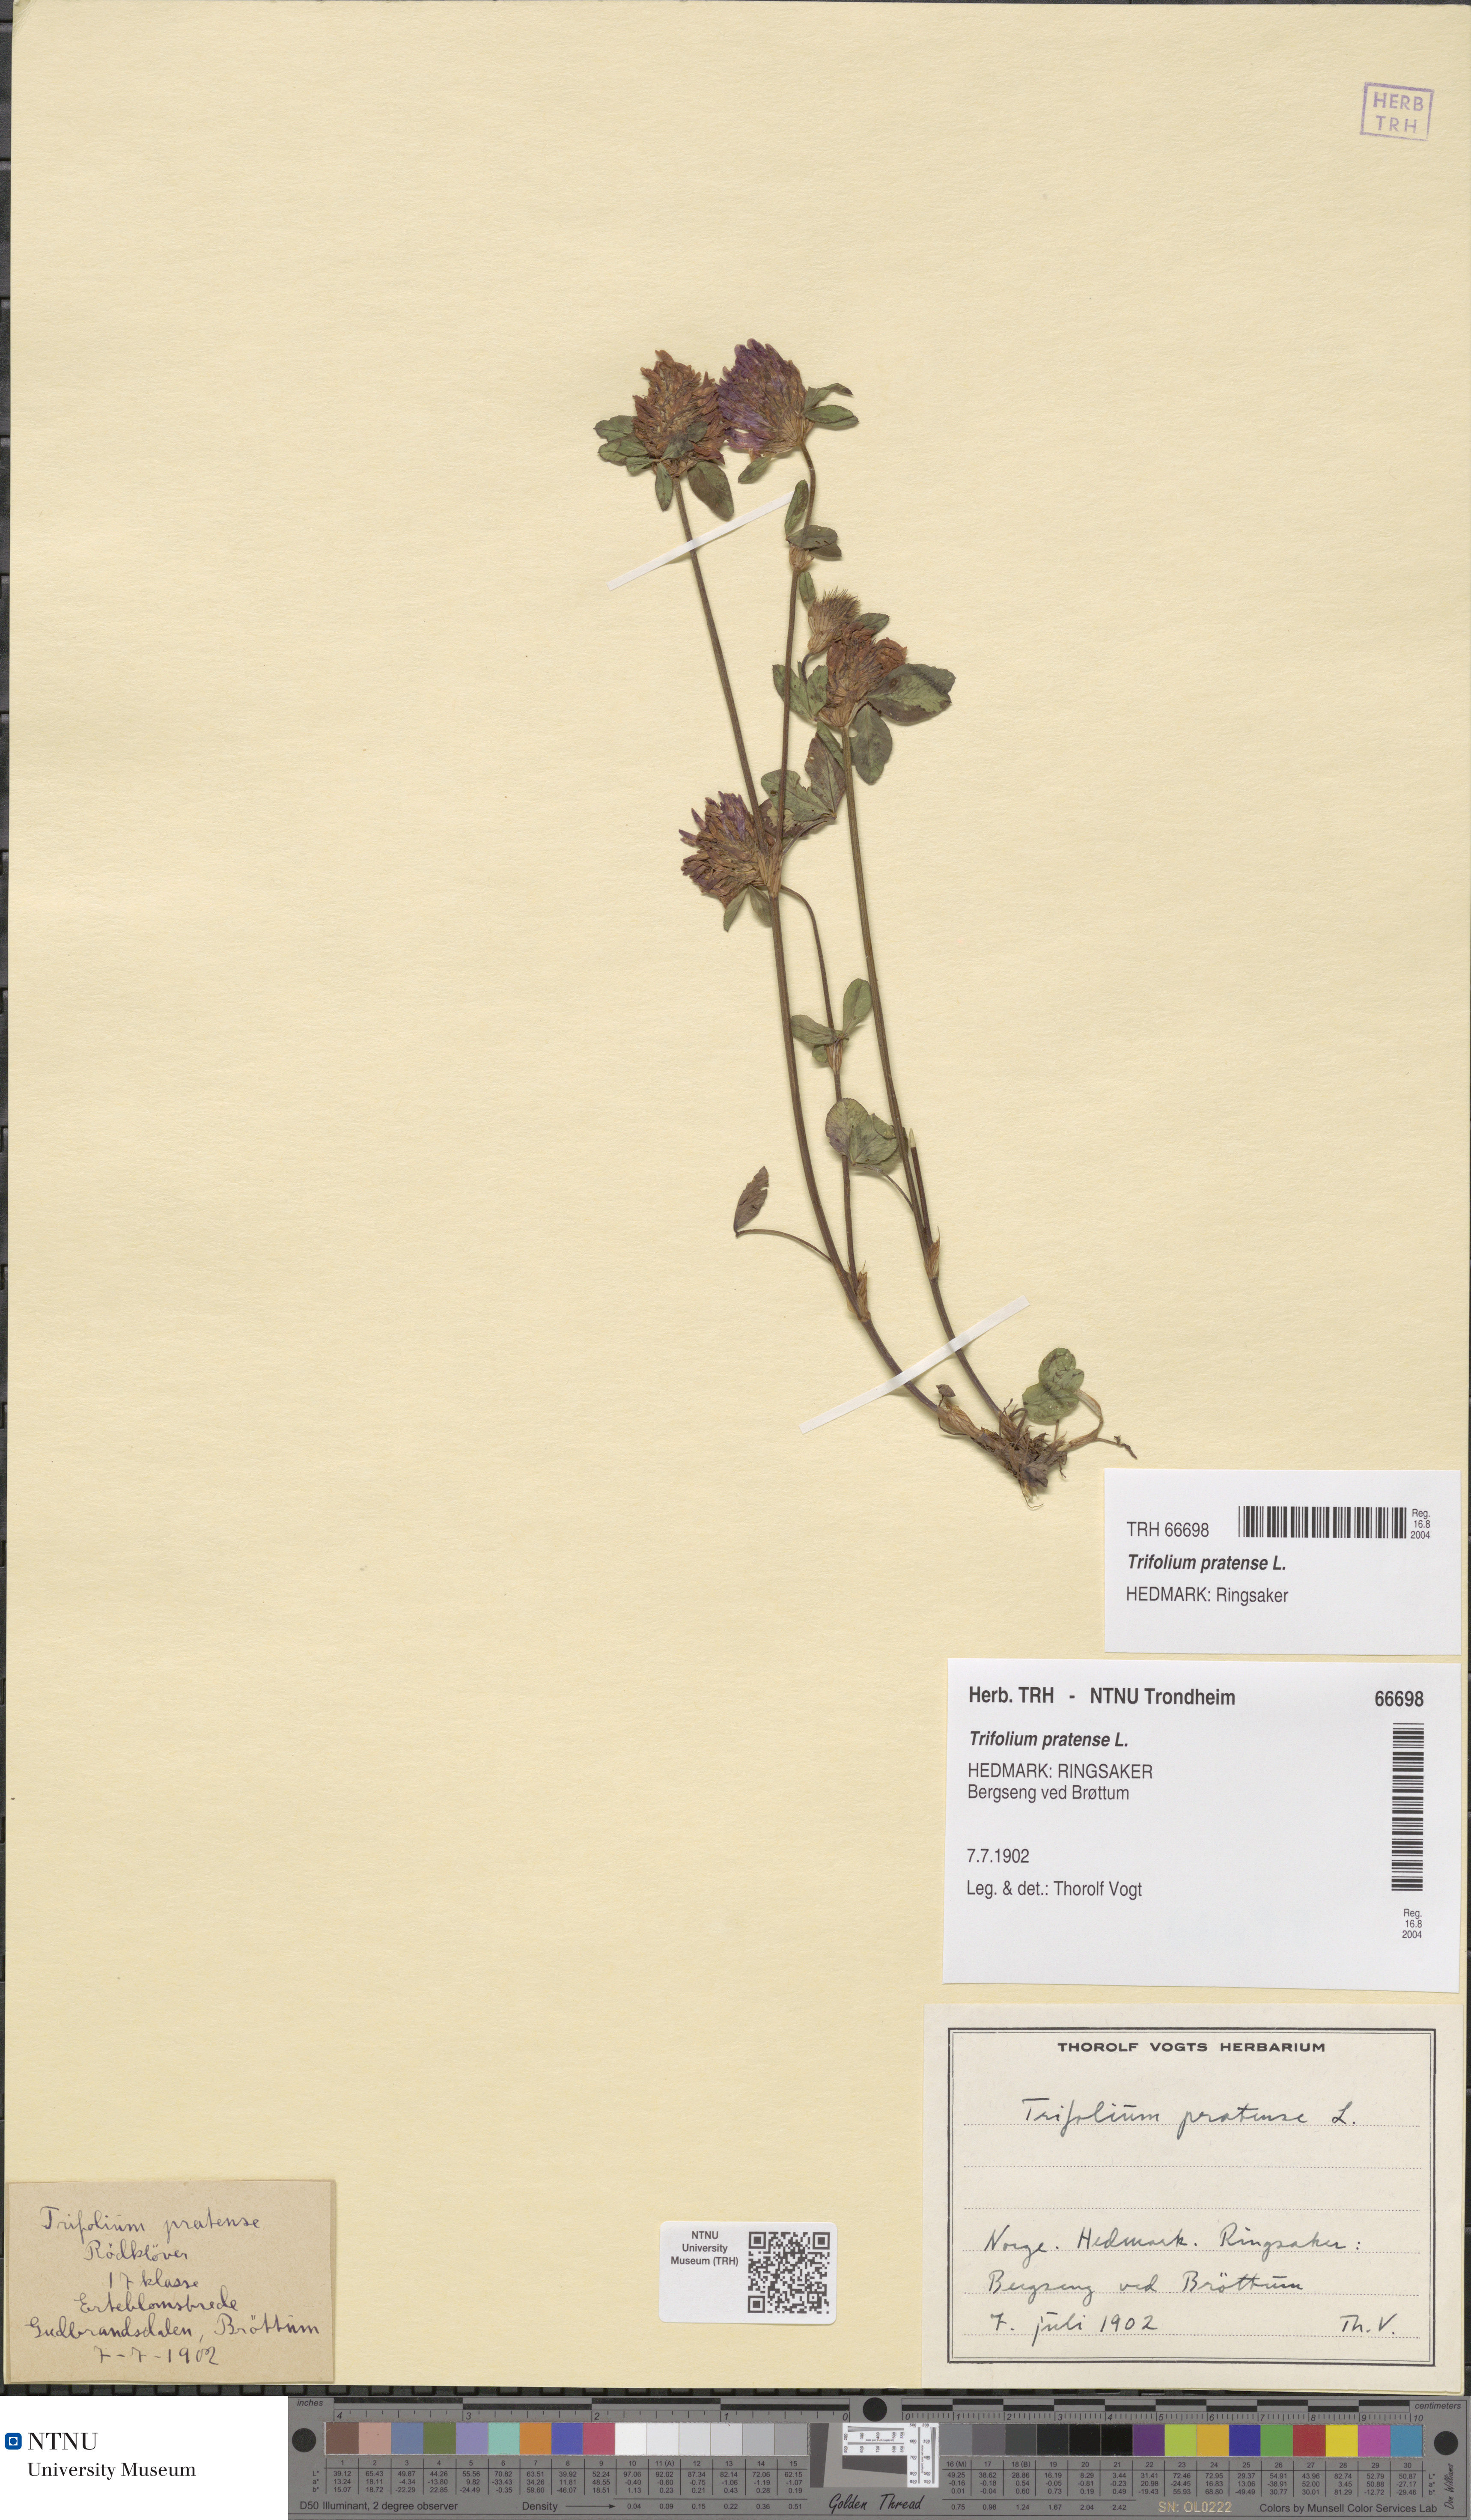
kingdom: Plantae
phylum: Tracheophyta
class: Magnoliopsida
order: Fabales
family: Fabaceae
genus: Trifolium
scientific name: Trifolium pratense
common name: Red clover
